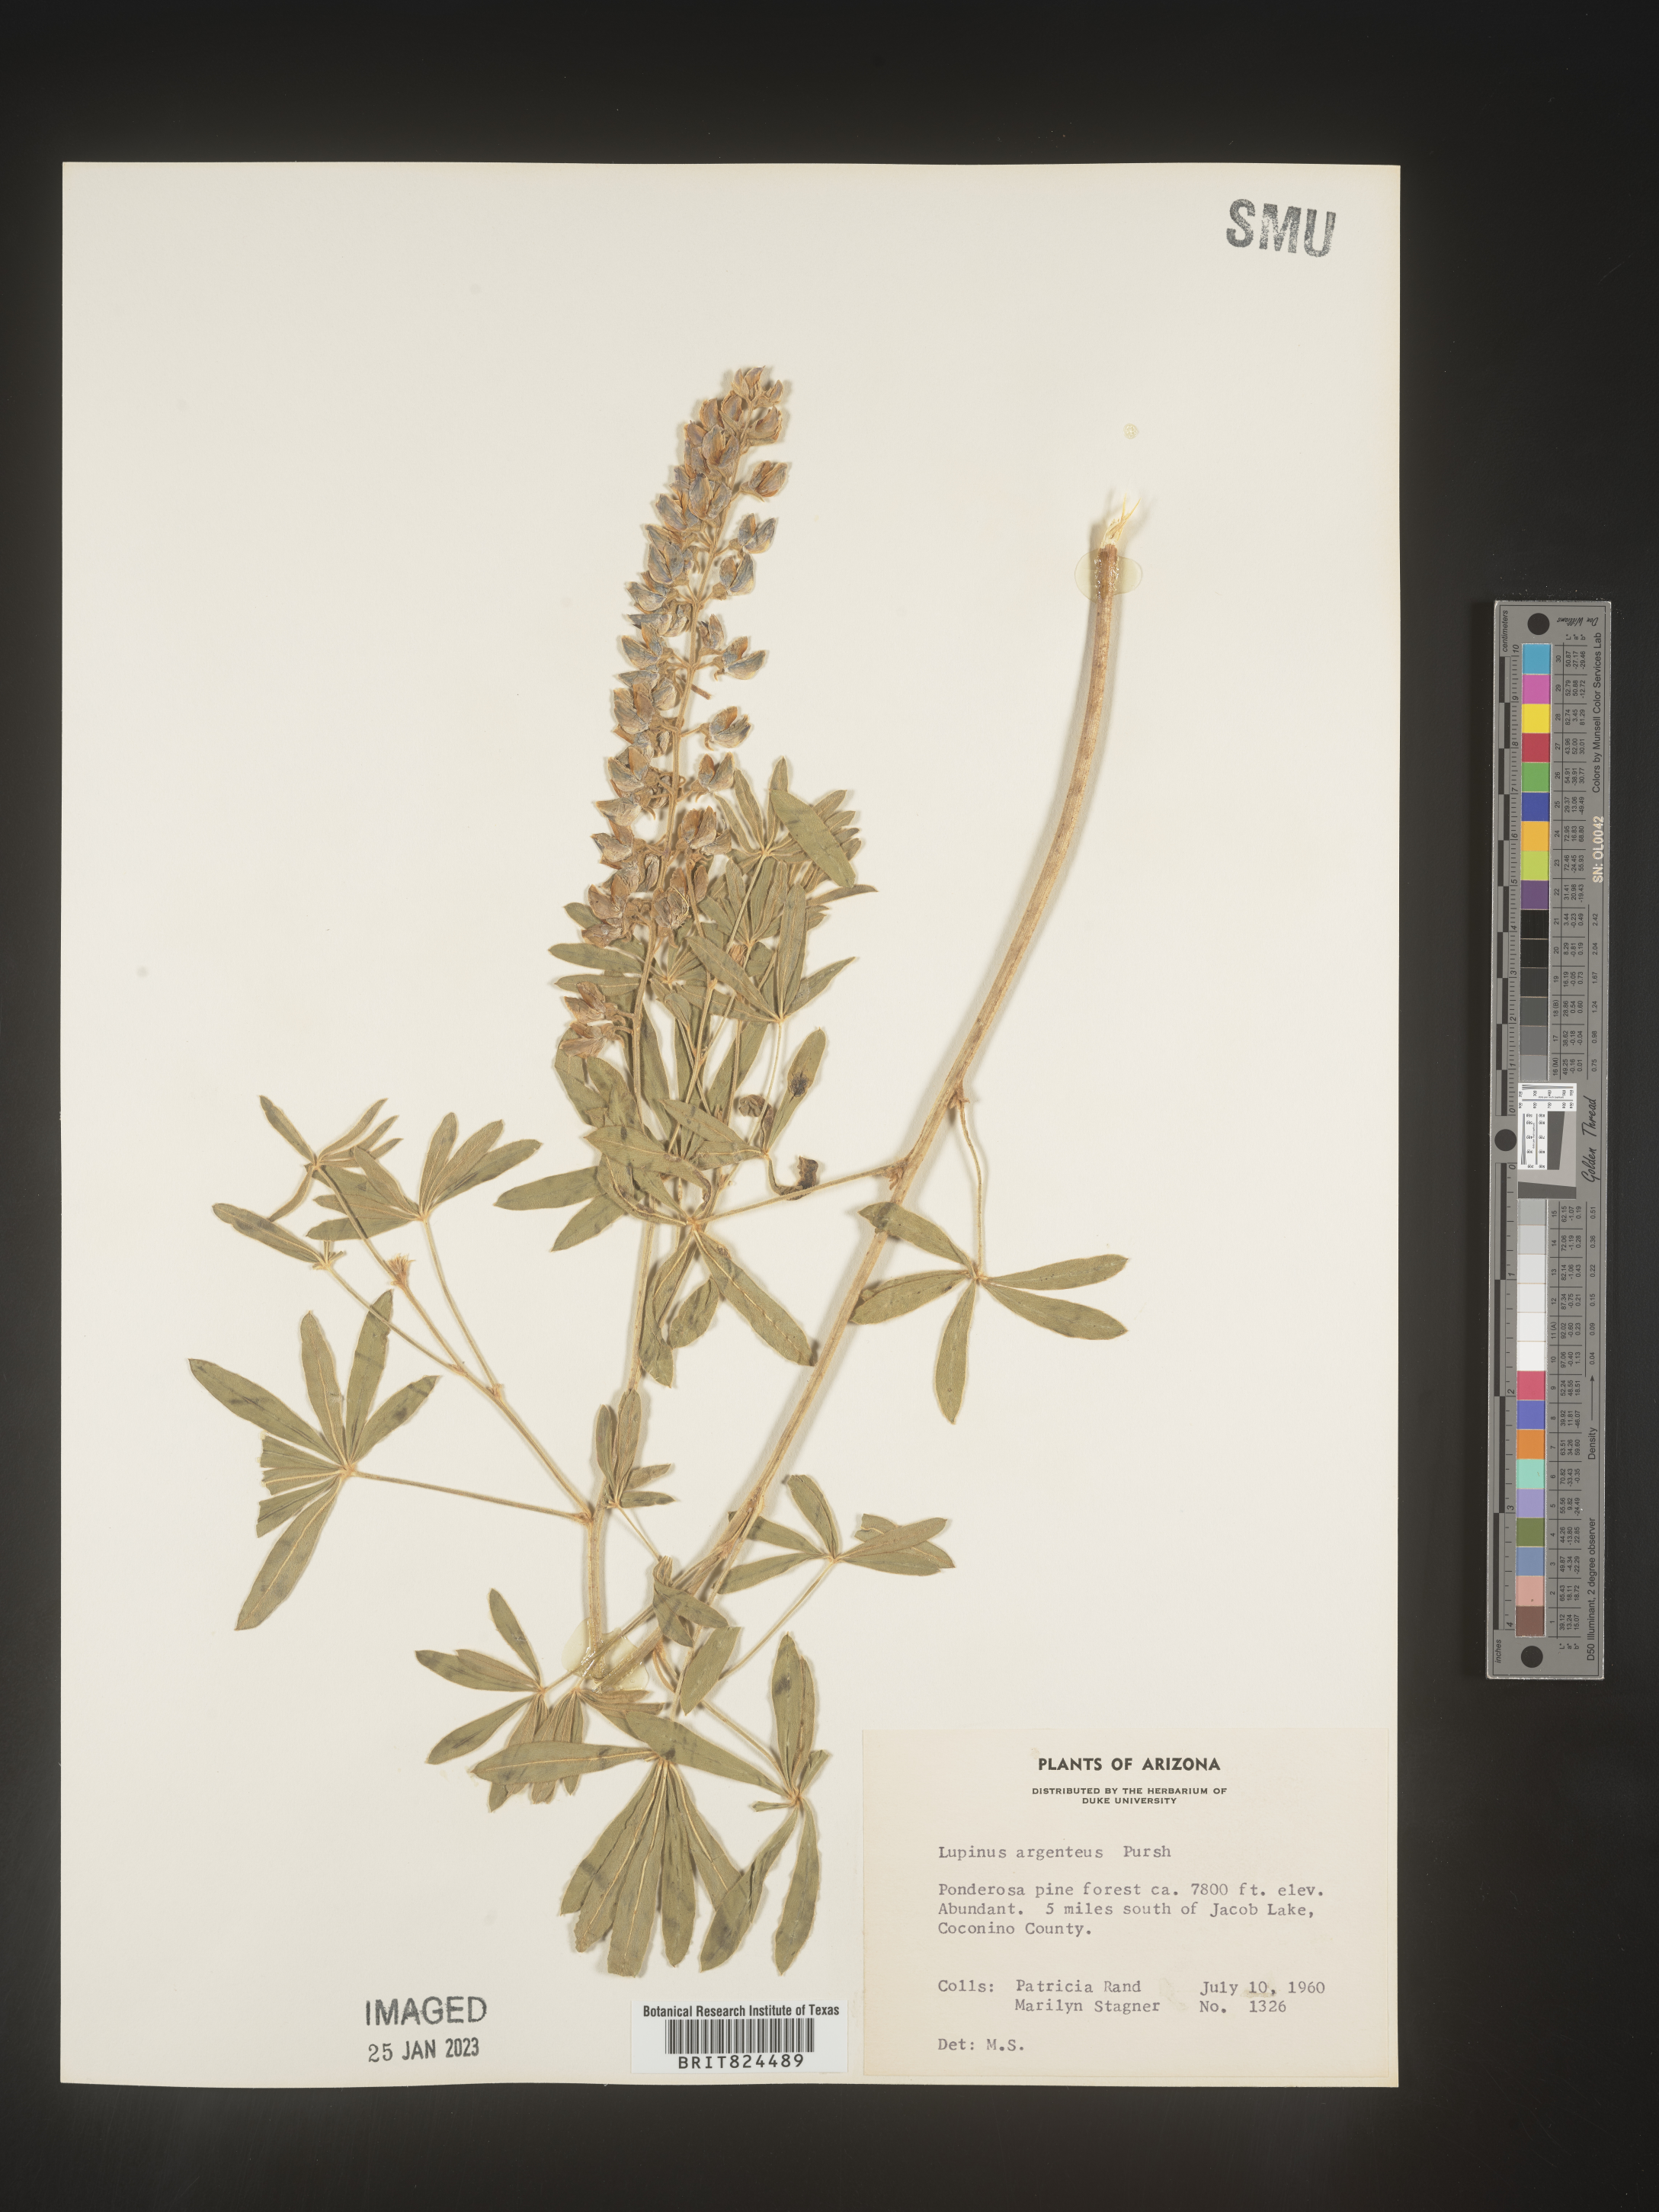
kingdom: Plantae
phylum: Tracheophyta
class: Magnoliopsida
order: Fabales
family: Fabaceae
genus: Lupinus
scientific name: Lupinus argenteus
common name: Silvery lupine
